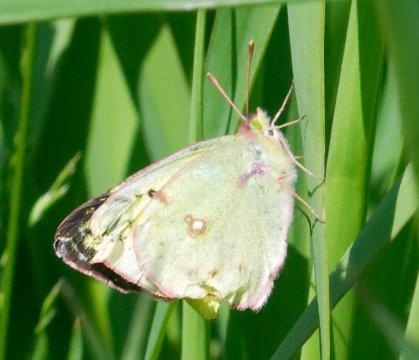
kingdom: Animalia
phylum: Arthropoda
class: Insecta
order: Lepidoptera
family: Pieridae
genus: Colias
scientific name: Colias philodice
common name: Clouded Sulphur
